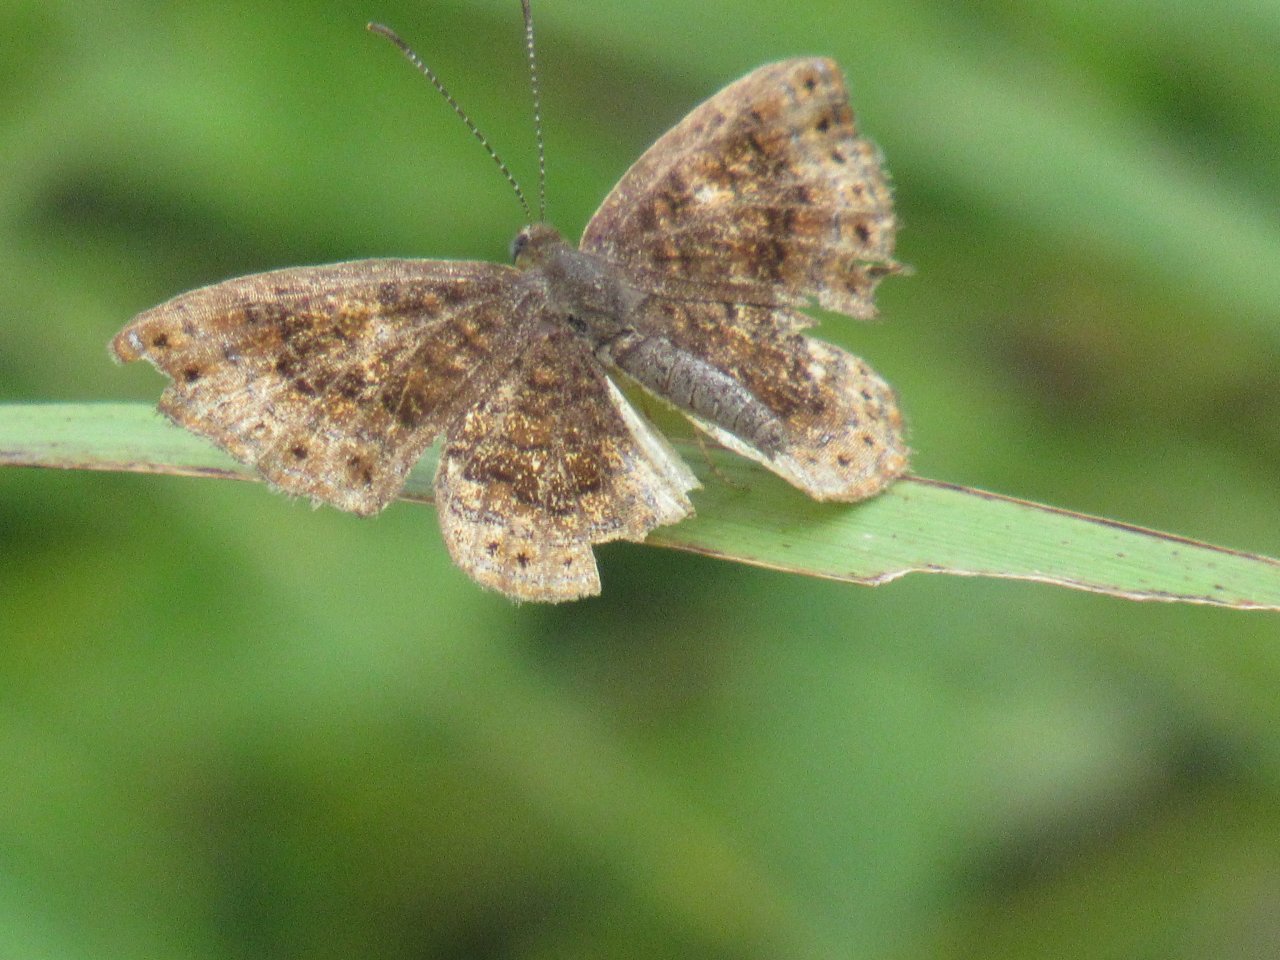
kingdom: Animalia
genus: Calephelis
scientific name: Calephelis borealis
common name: Northern Metalmark
